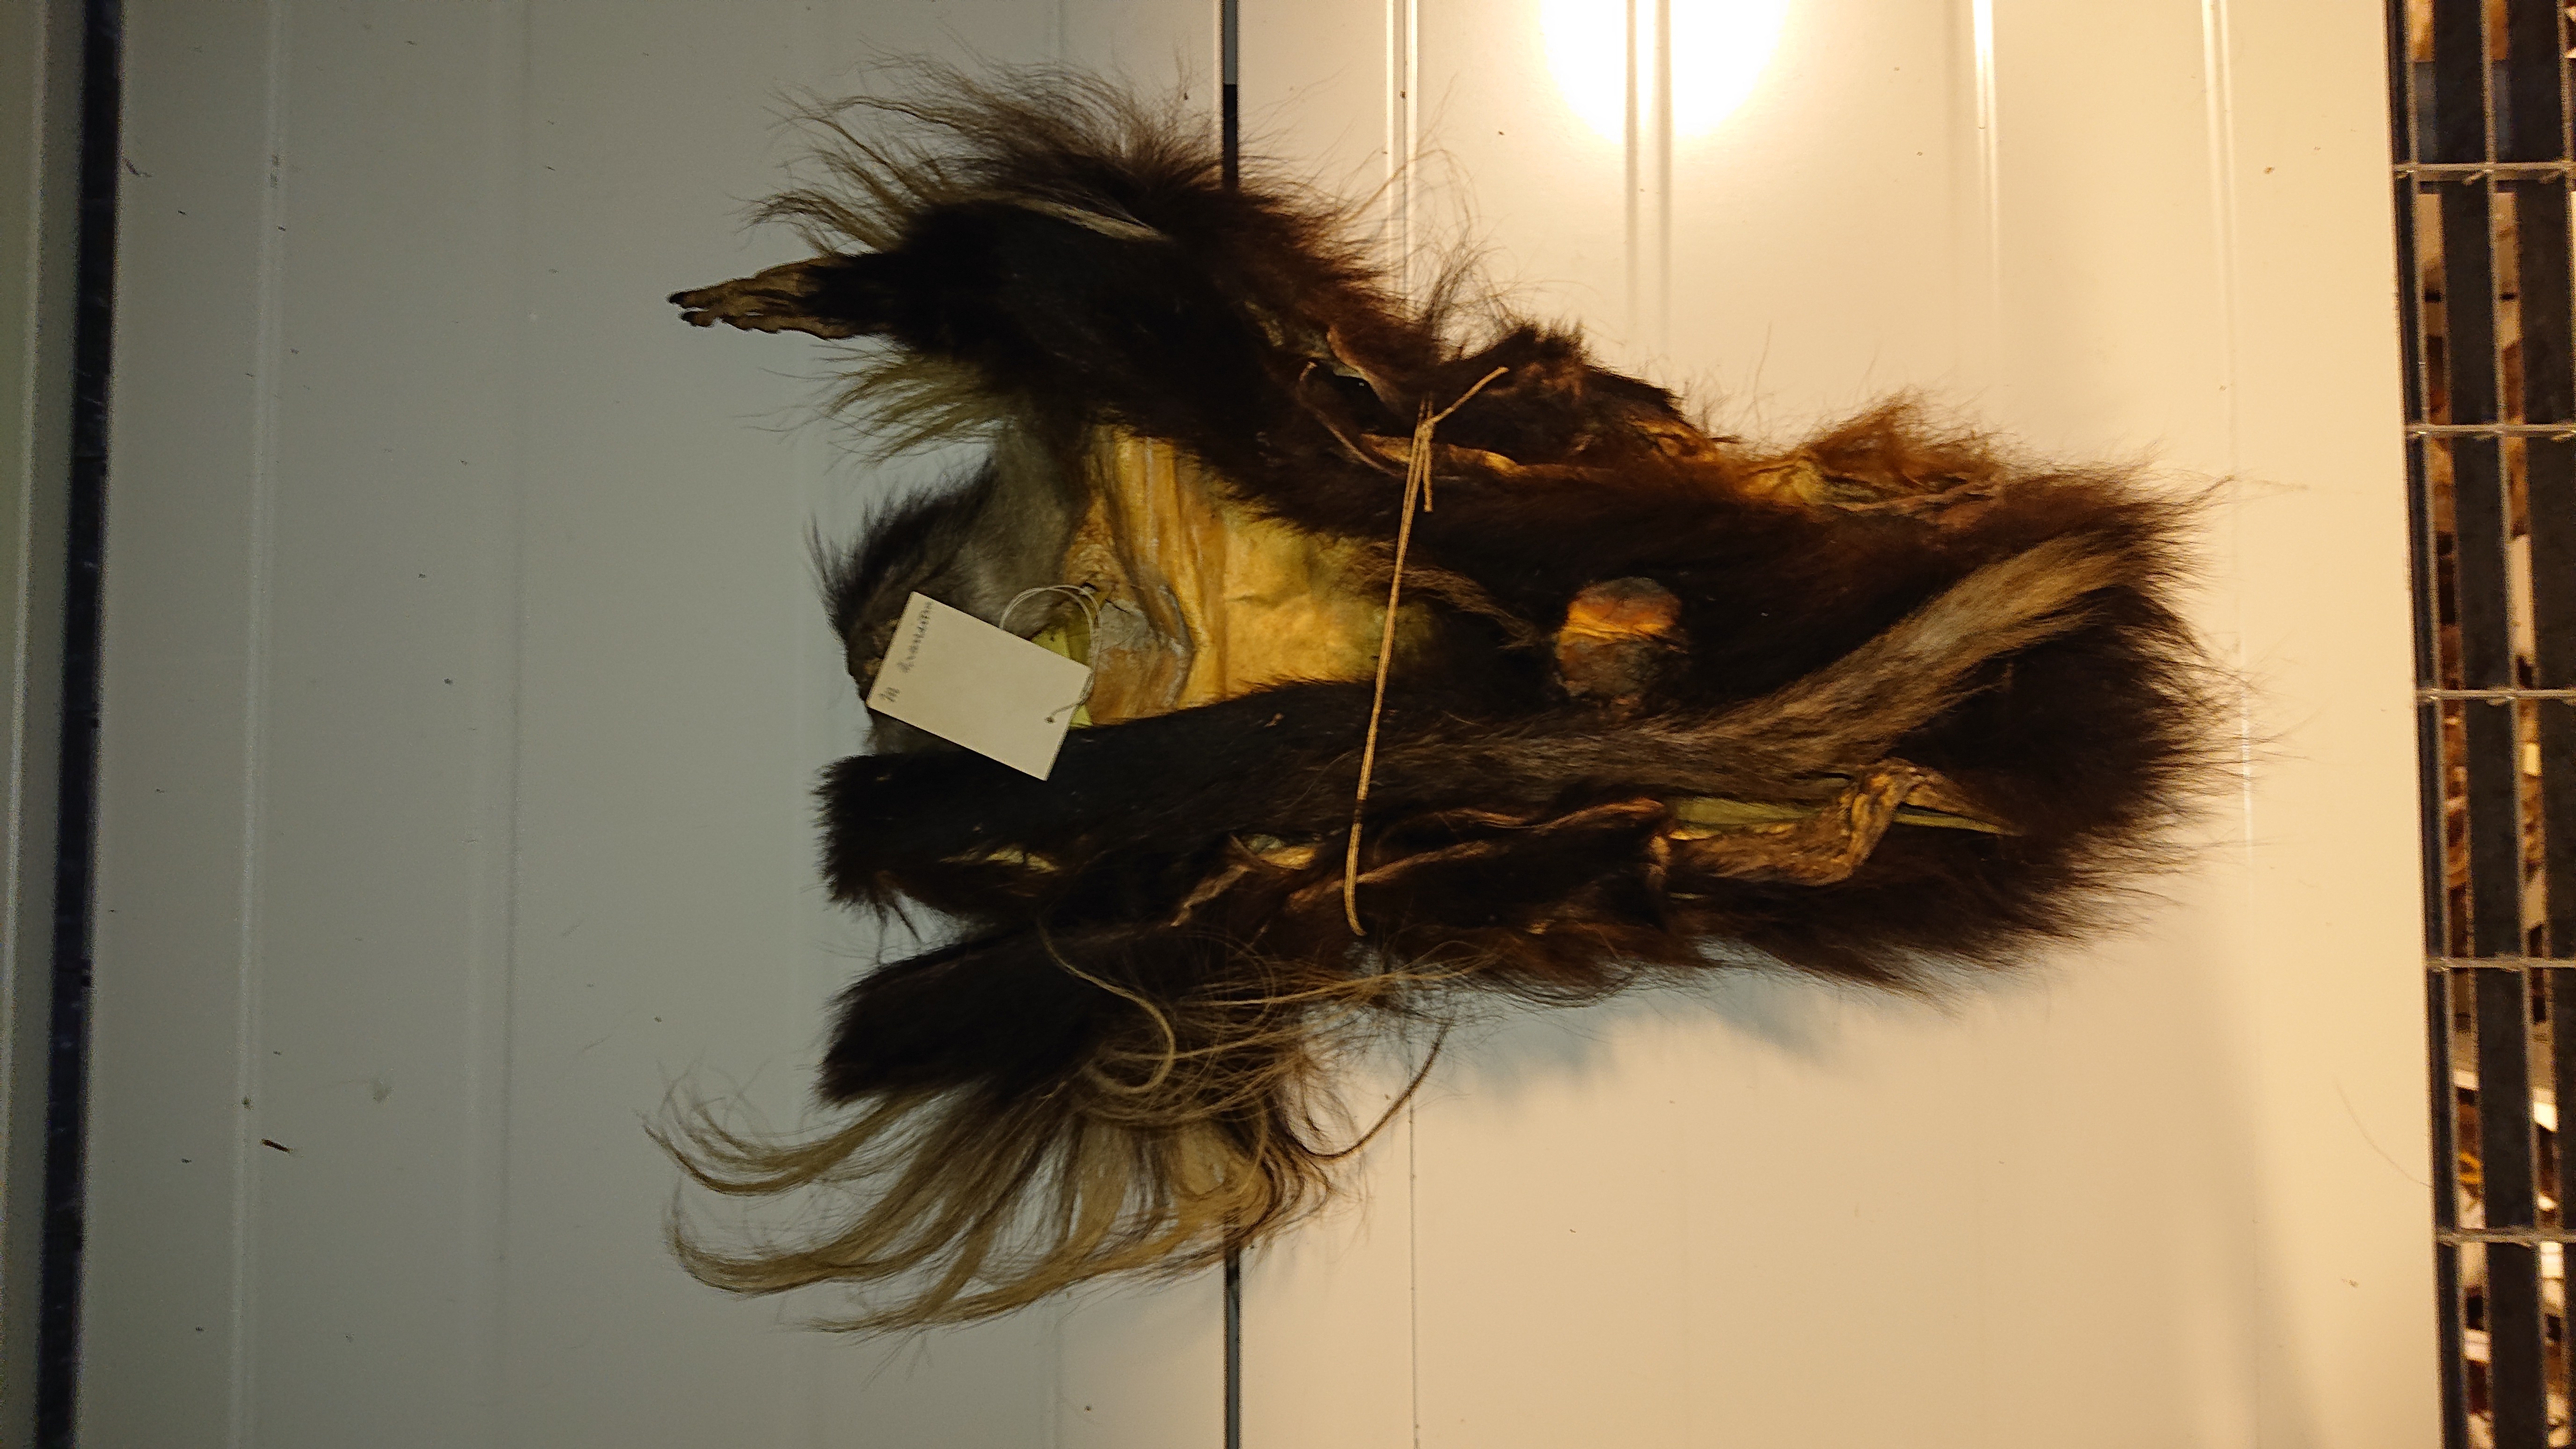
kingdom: Animalia
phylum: Chordata
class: Mammalia
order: Primates
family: Cercopithecidae
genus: Colobus
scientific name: Colobus
